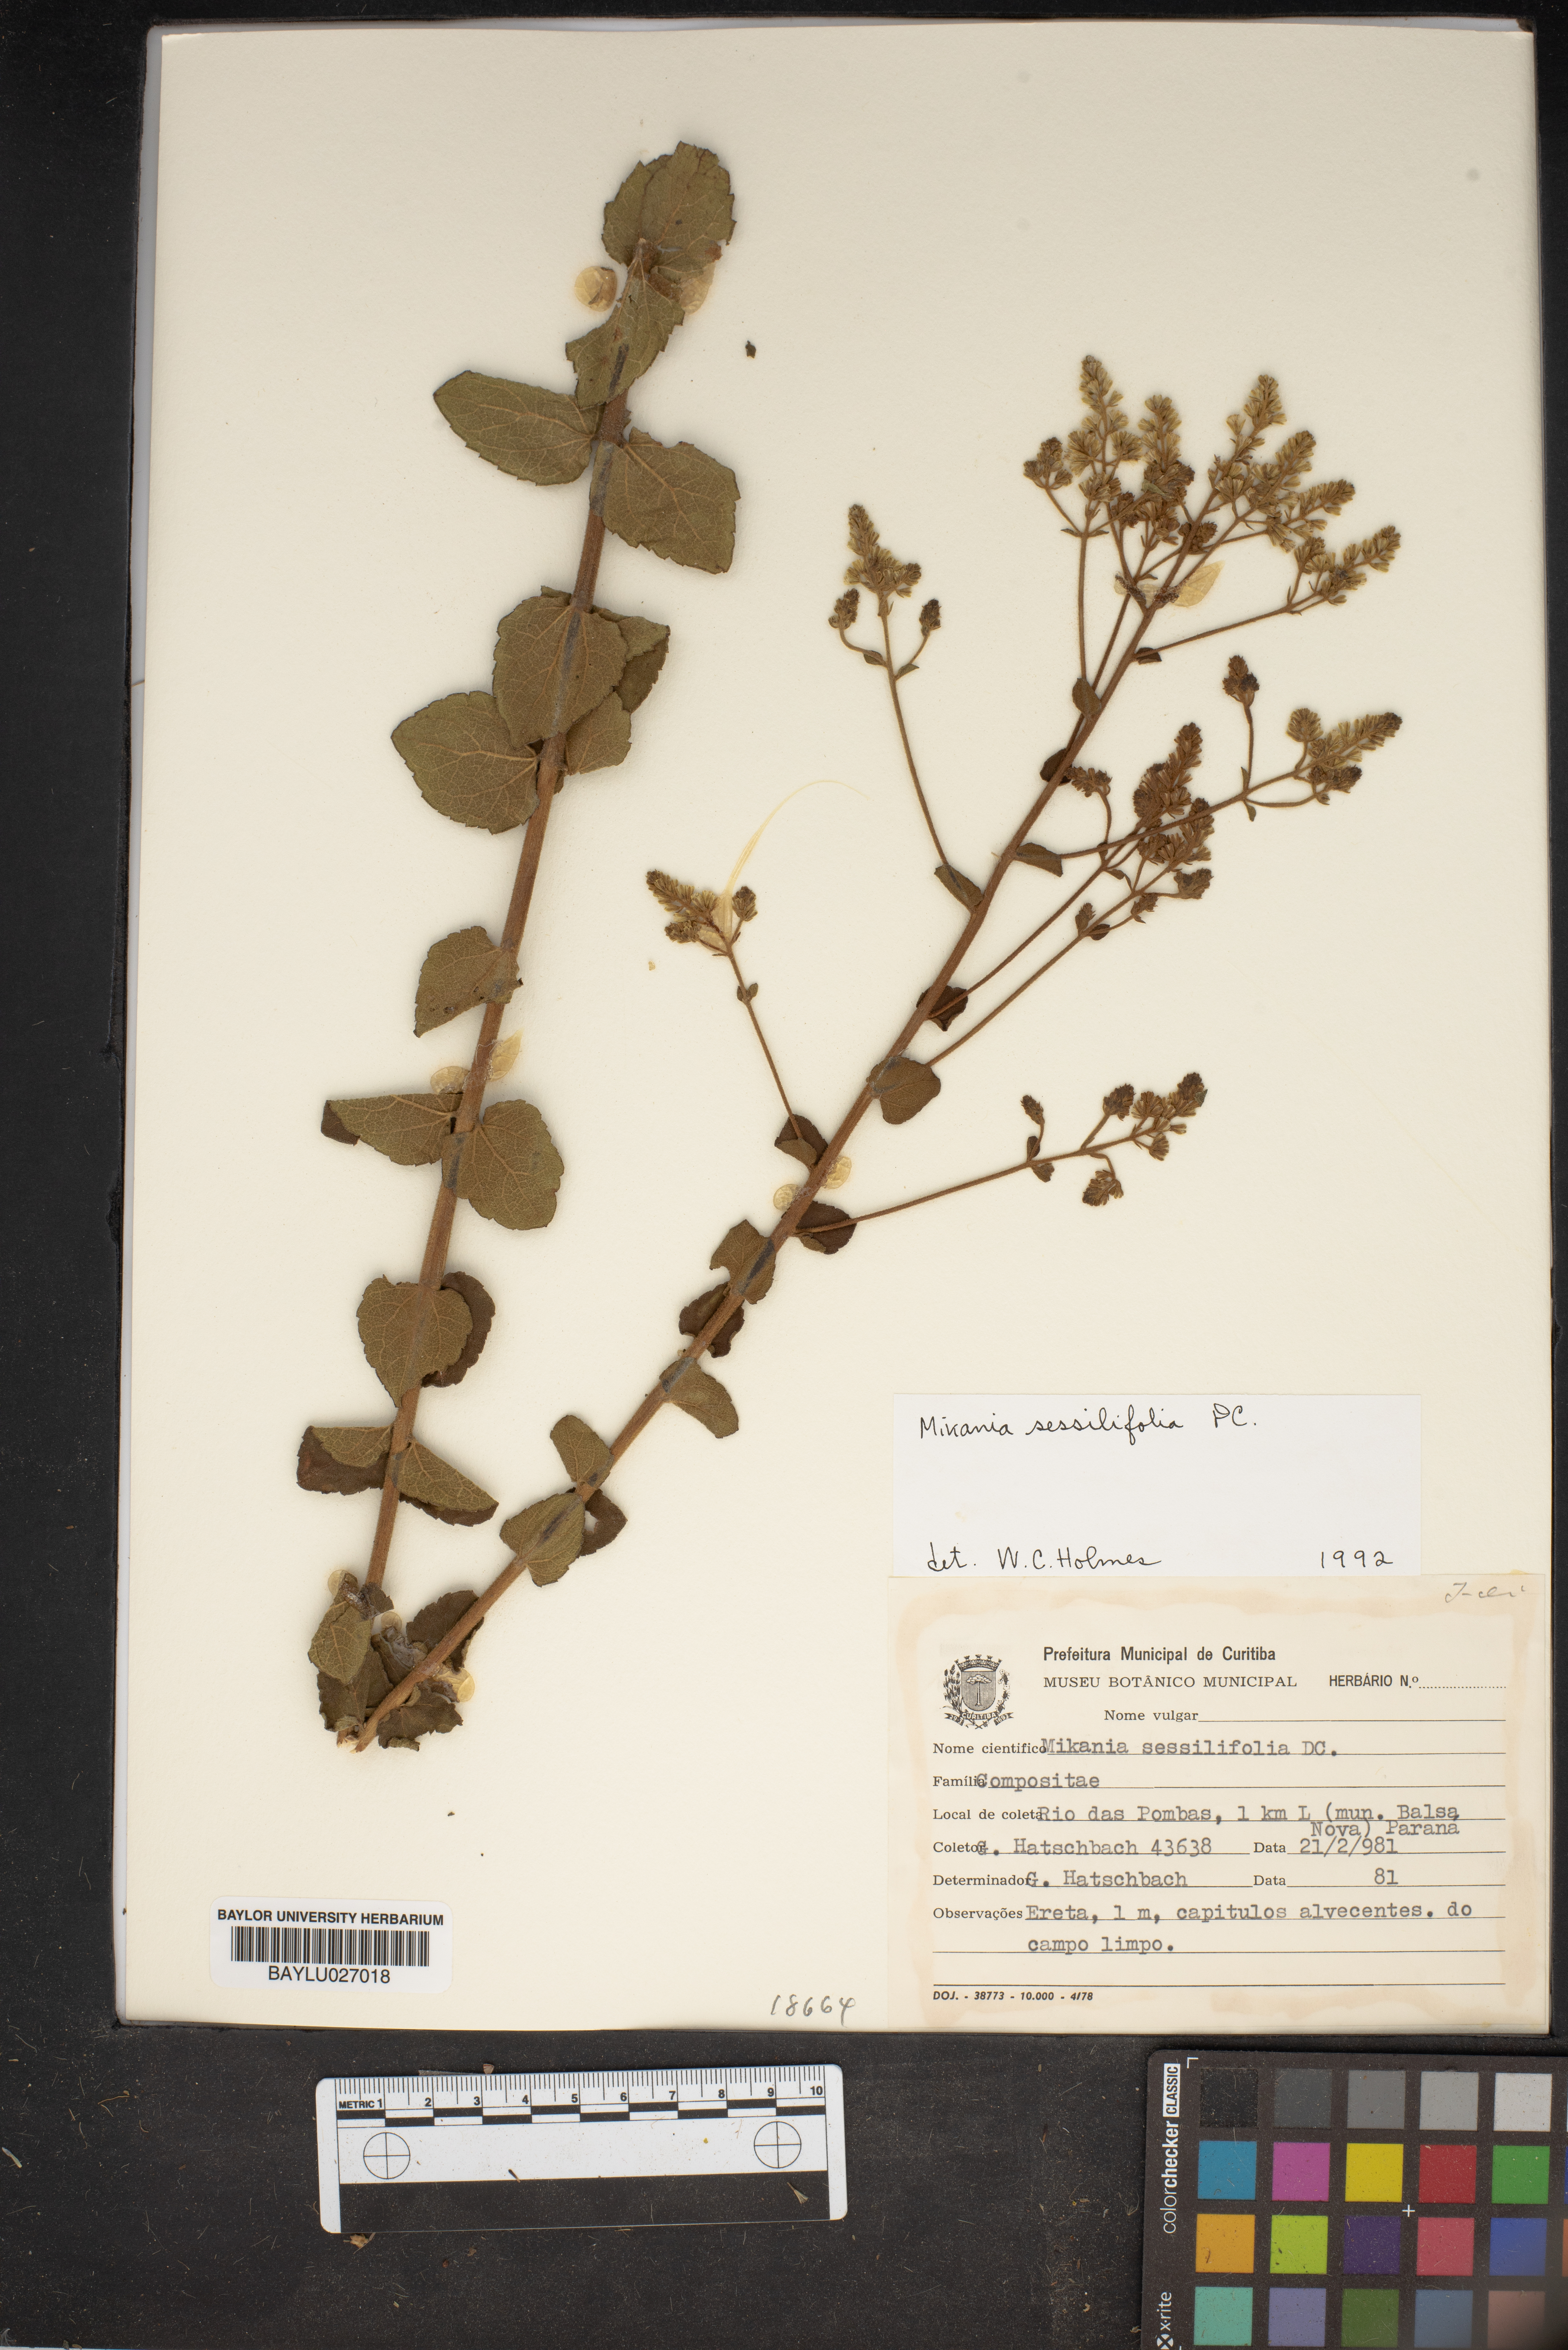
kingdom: Plantae
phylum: Tracheophyta
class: Magnoliopsida
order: Asterales
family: Asteraceae
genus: Mikania
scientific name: Mikania sessilifolia
